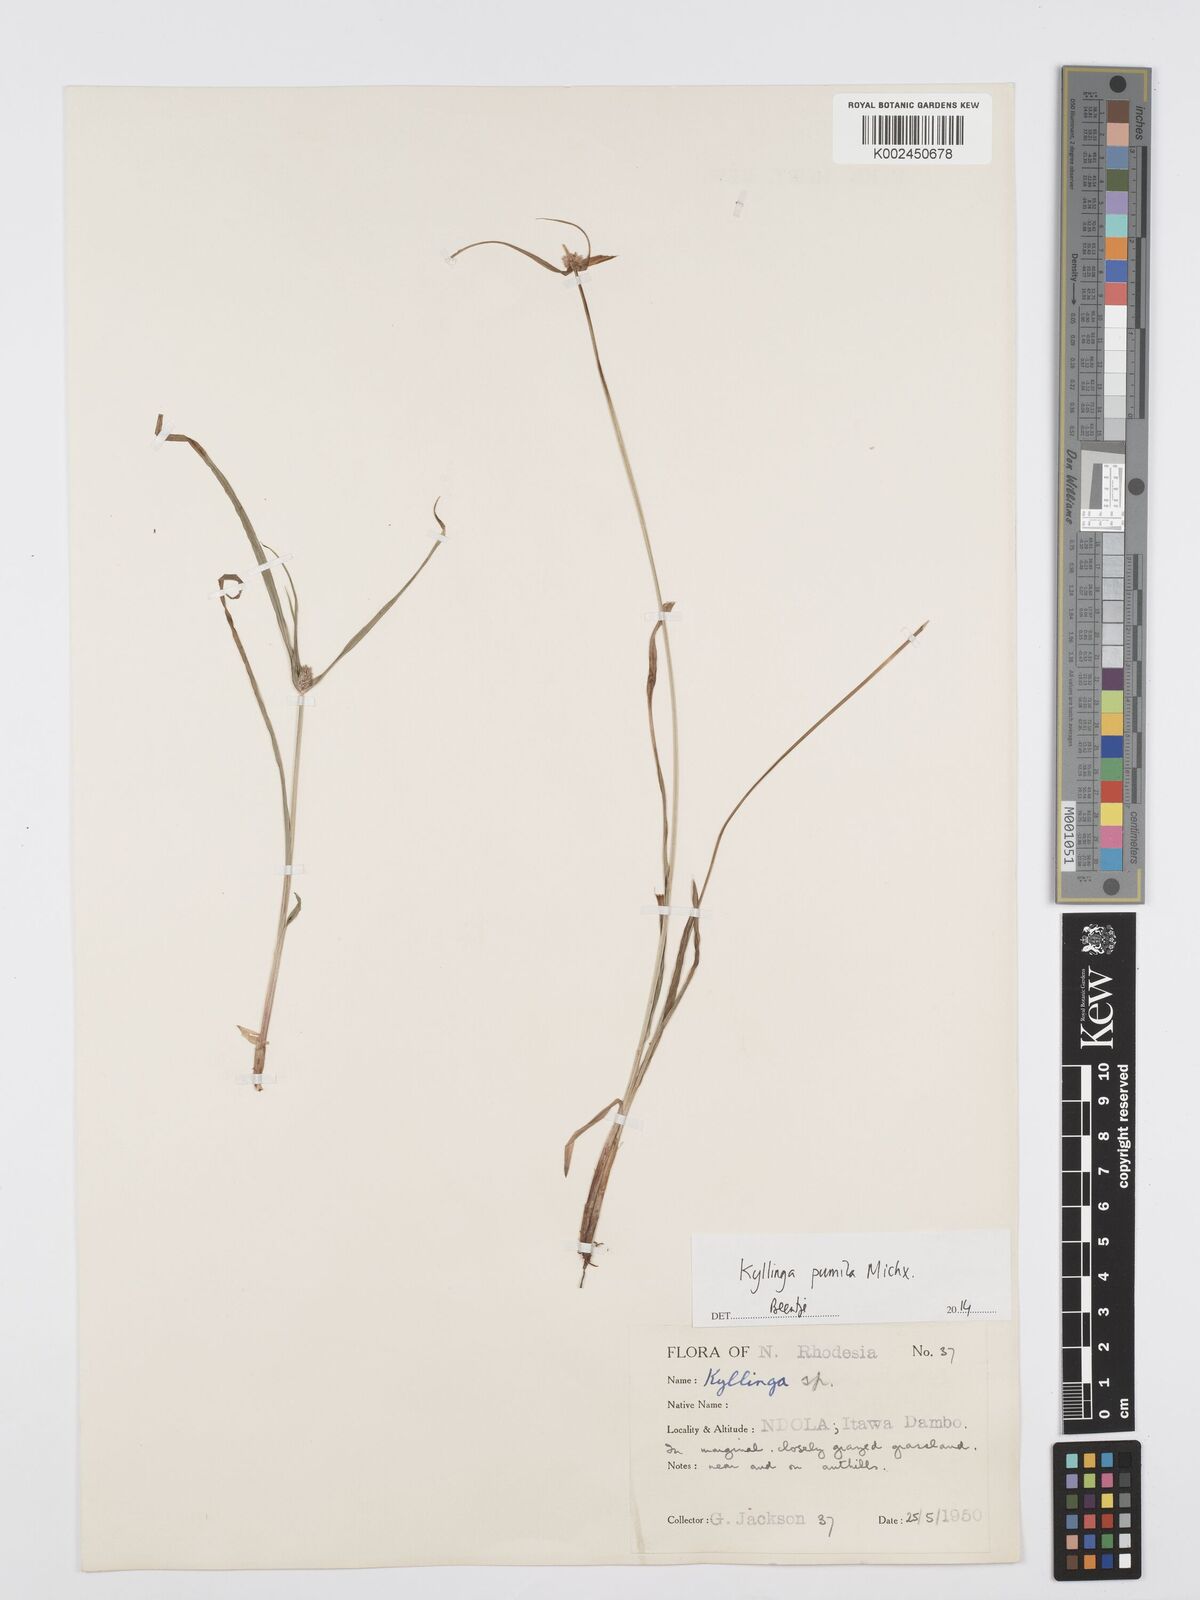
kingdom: Plantae
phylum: Tracheophyta
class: Liliopsida
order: Poales
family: Cyperaceae
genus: Cyperus
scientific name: Cyperus pumilus
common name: Low flatsedge
